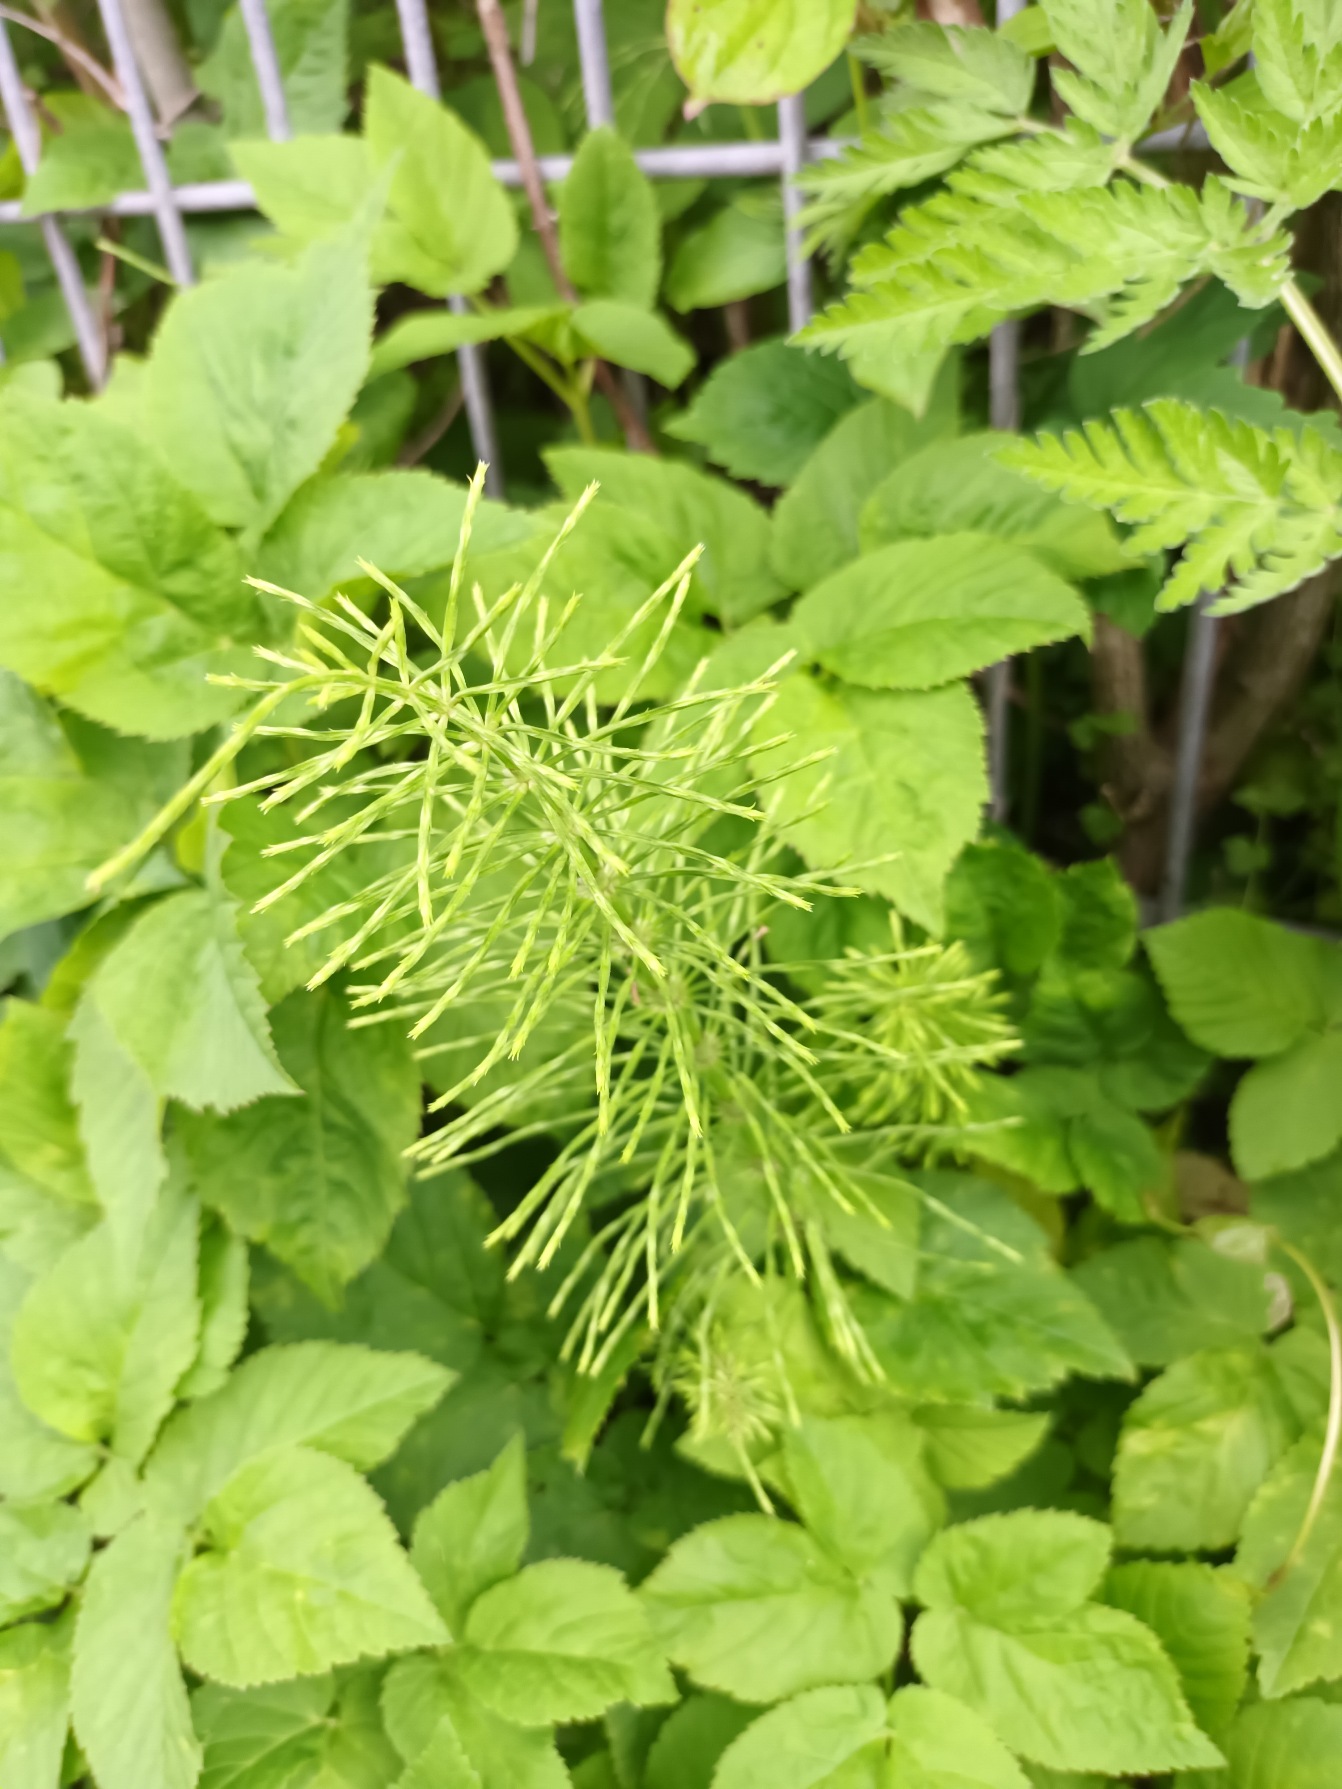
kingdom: Plantae
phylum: Tracheophyta
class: Polypodiopsida
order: Equisetales
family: Equisetaceae
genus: Equisetum
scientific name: Equisetum arvense
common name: Ager-padderok
